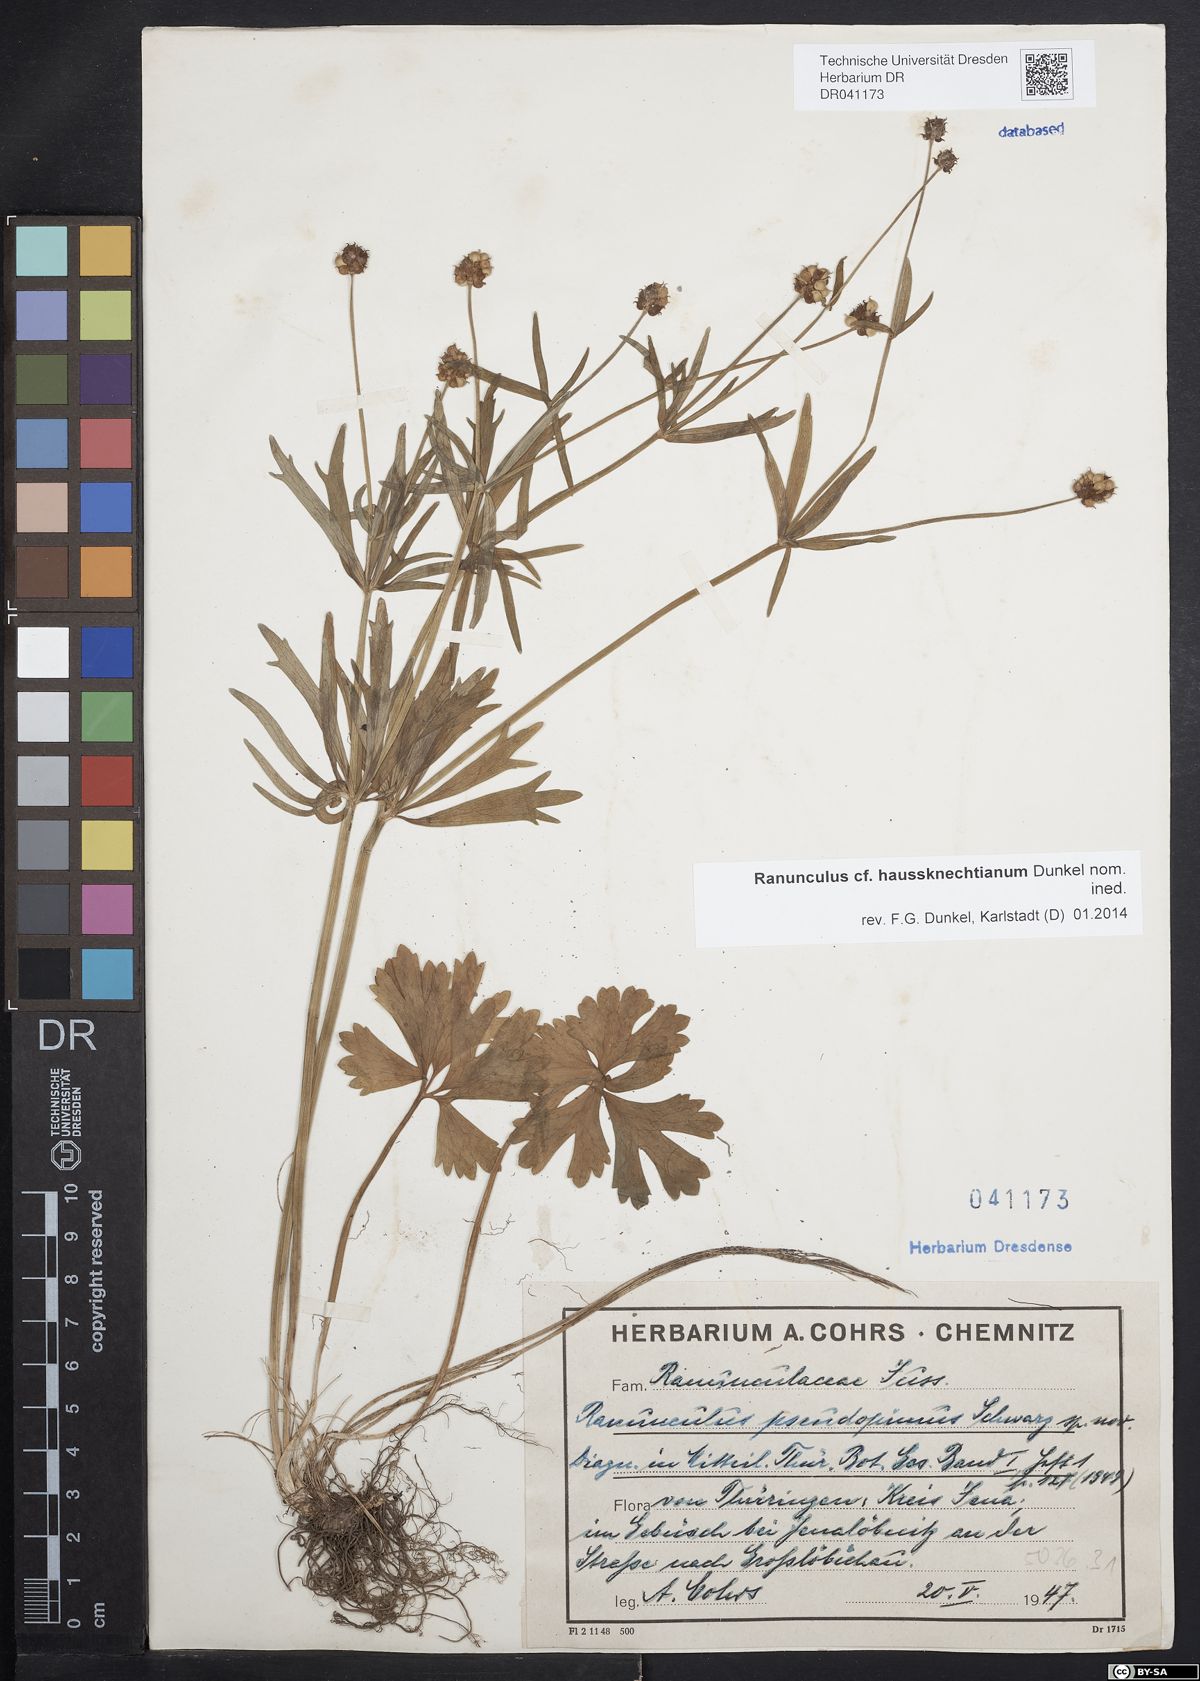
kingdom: Plantae
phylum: Tracheophyta
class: Magnoliopsida
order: Ranunculales
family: Ranunculaceae
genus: Ranunculus
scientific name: Ranunculus auricomus
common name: Goldilocks buttercup
